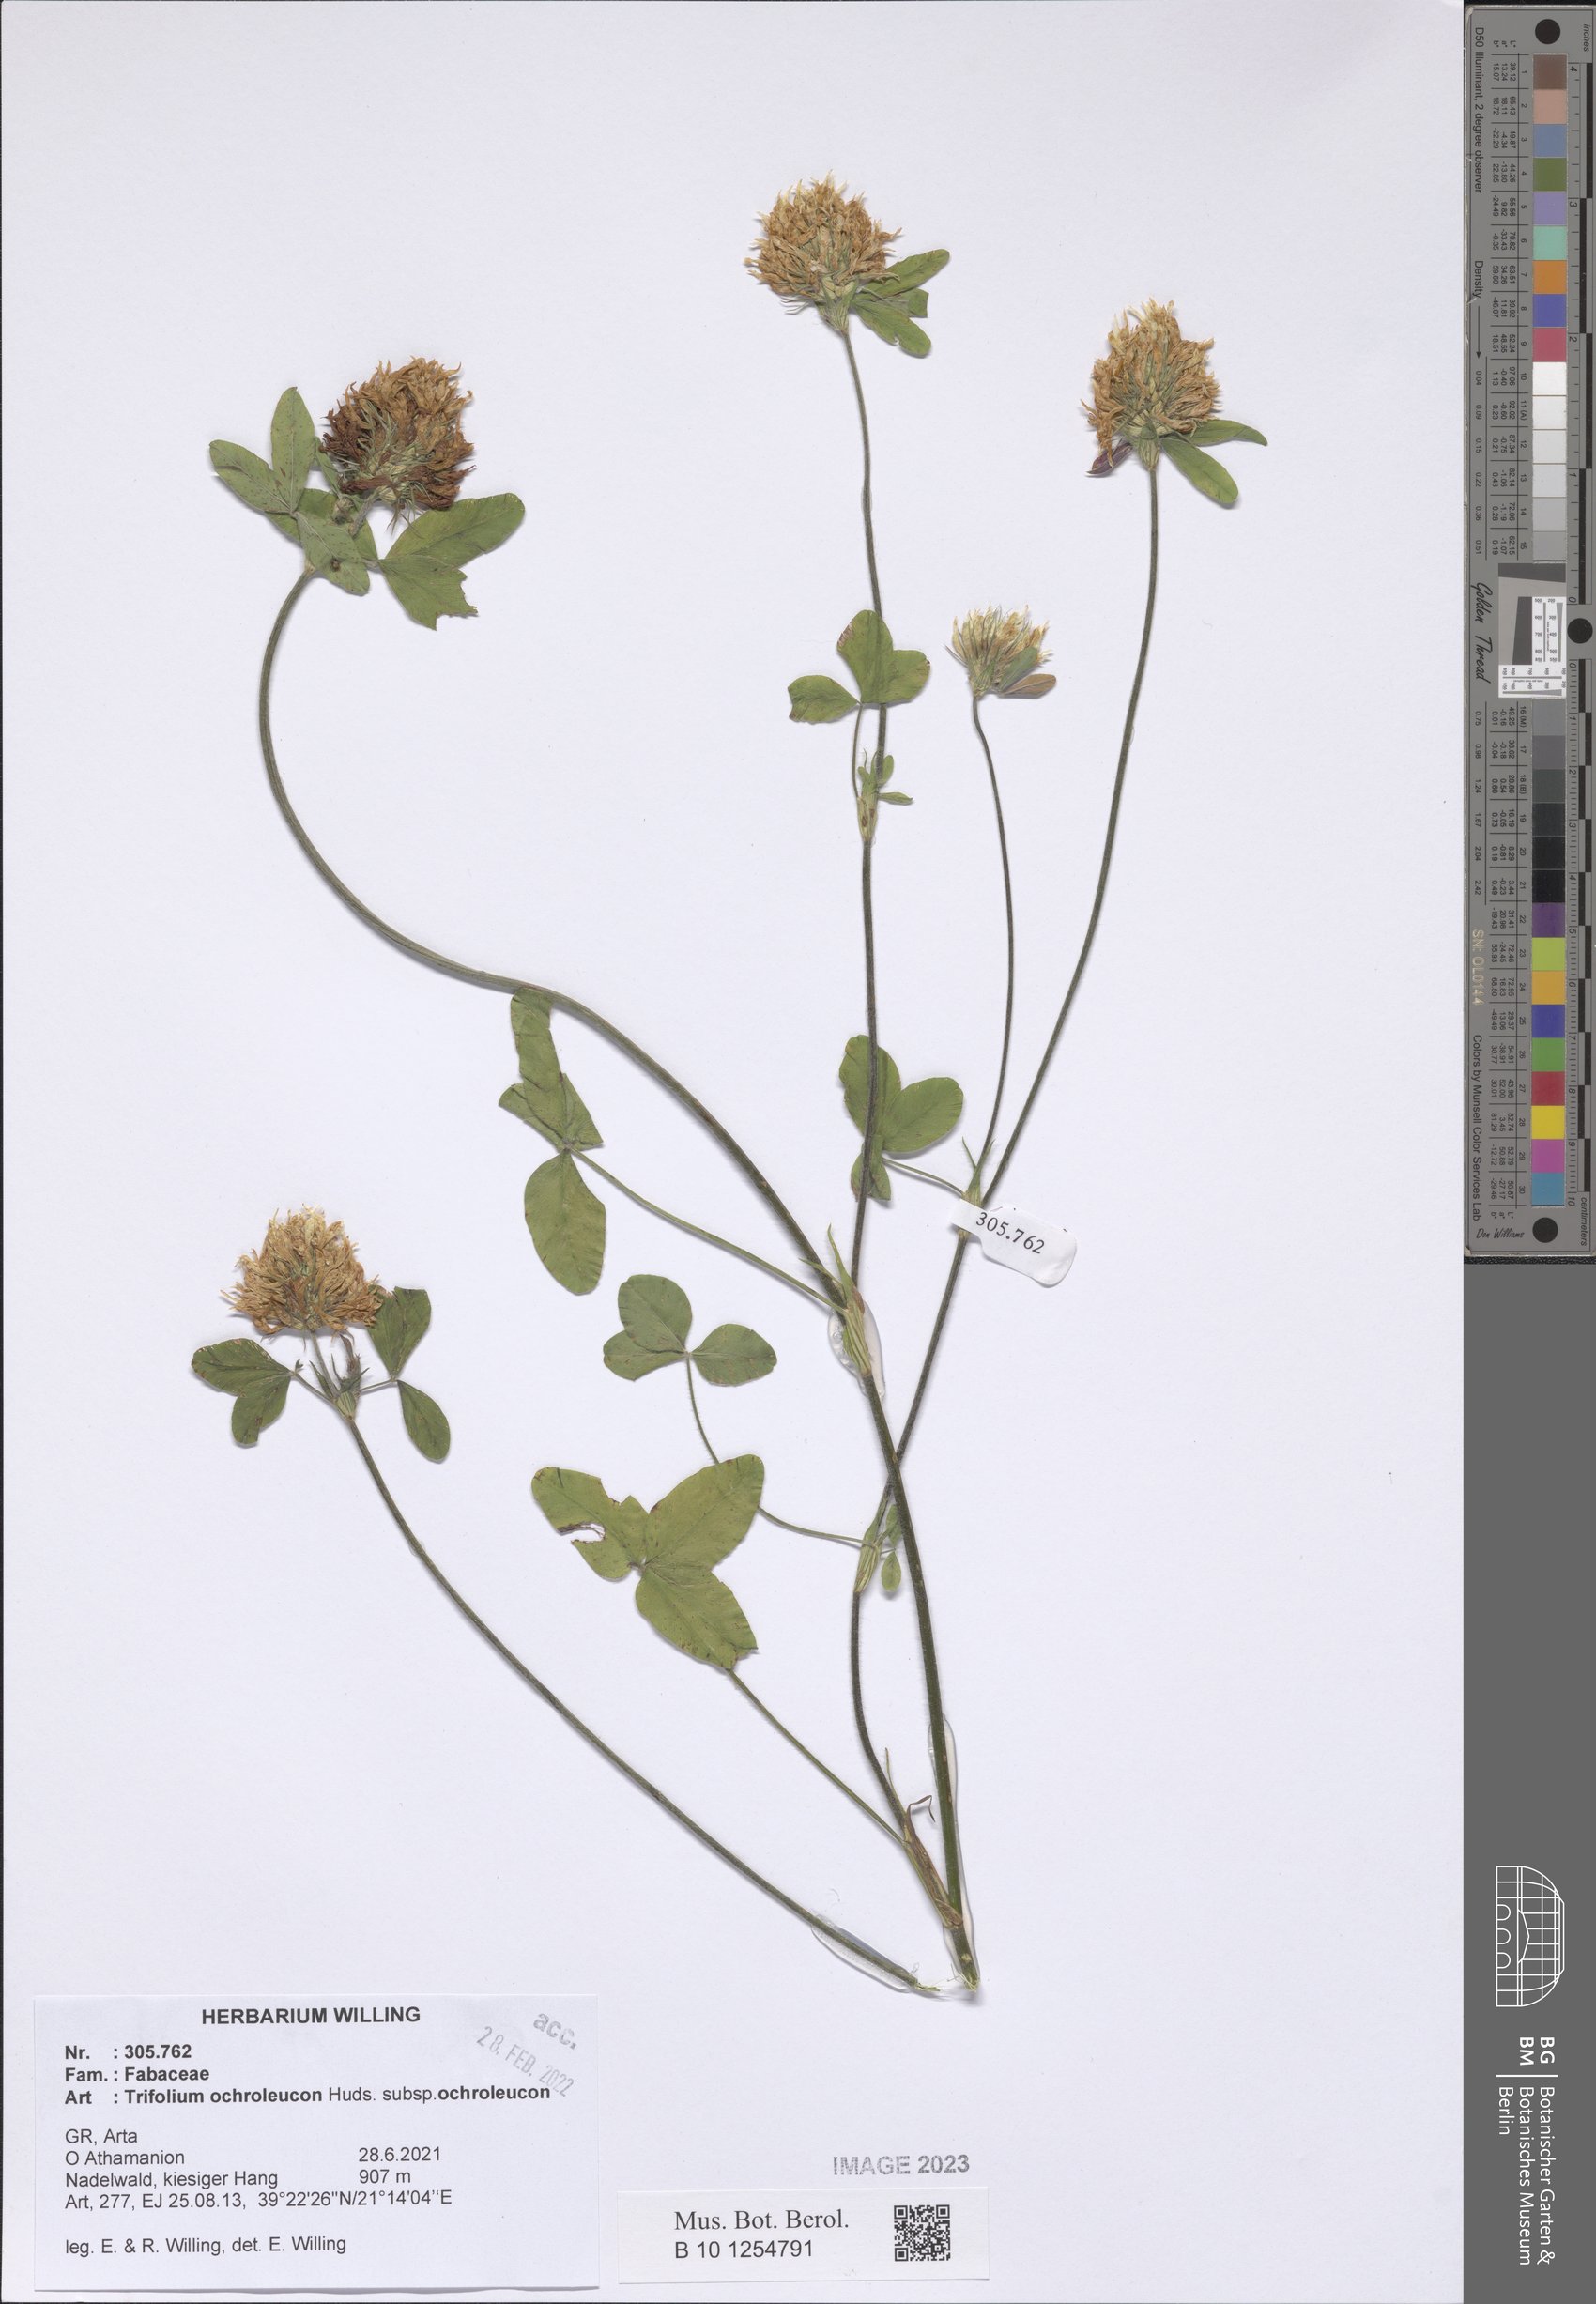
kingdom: Plantae
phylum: Tracheophyta
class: Magnoliopsida
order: Fabales
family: Fabaceae
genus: Trifolium
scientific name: Trifolium ochroleucon
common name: Sulphur clover
